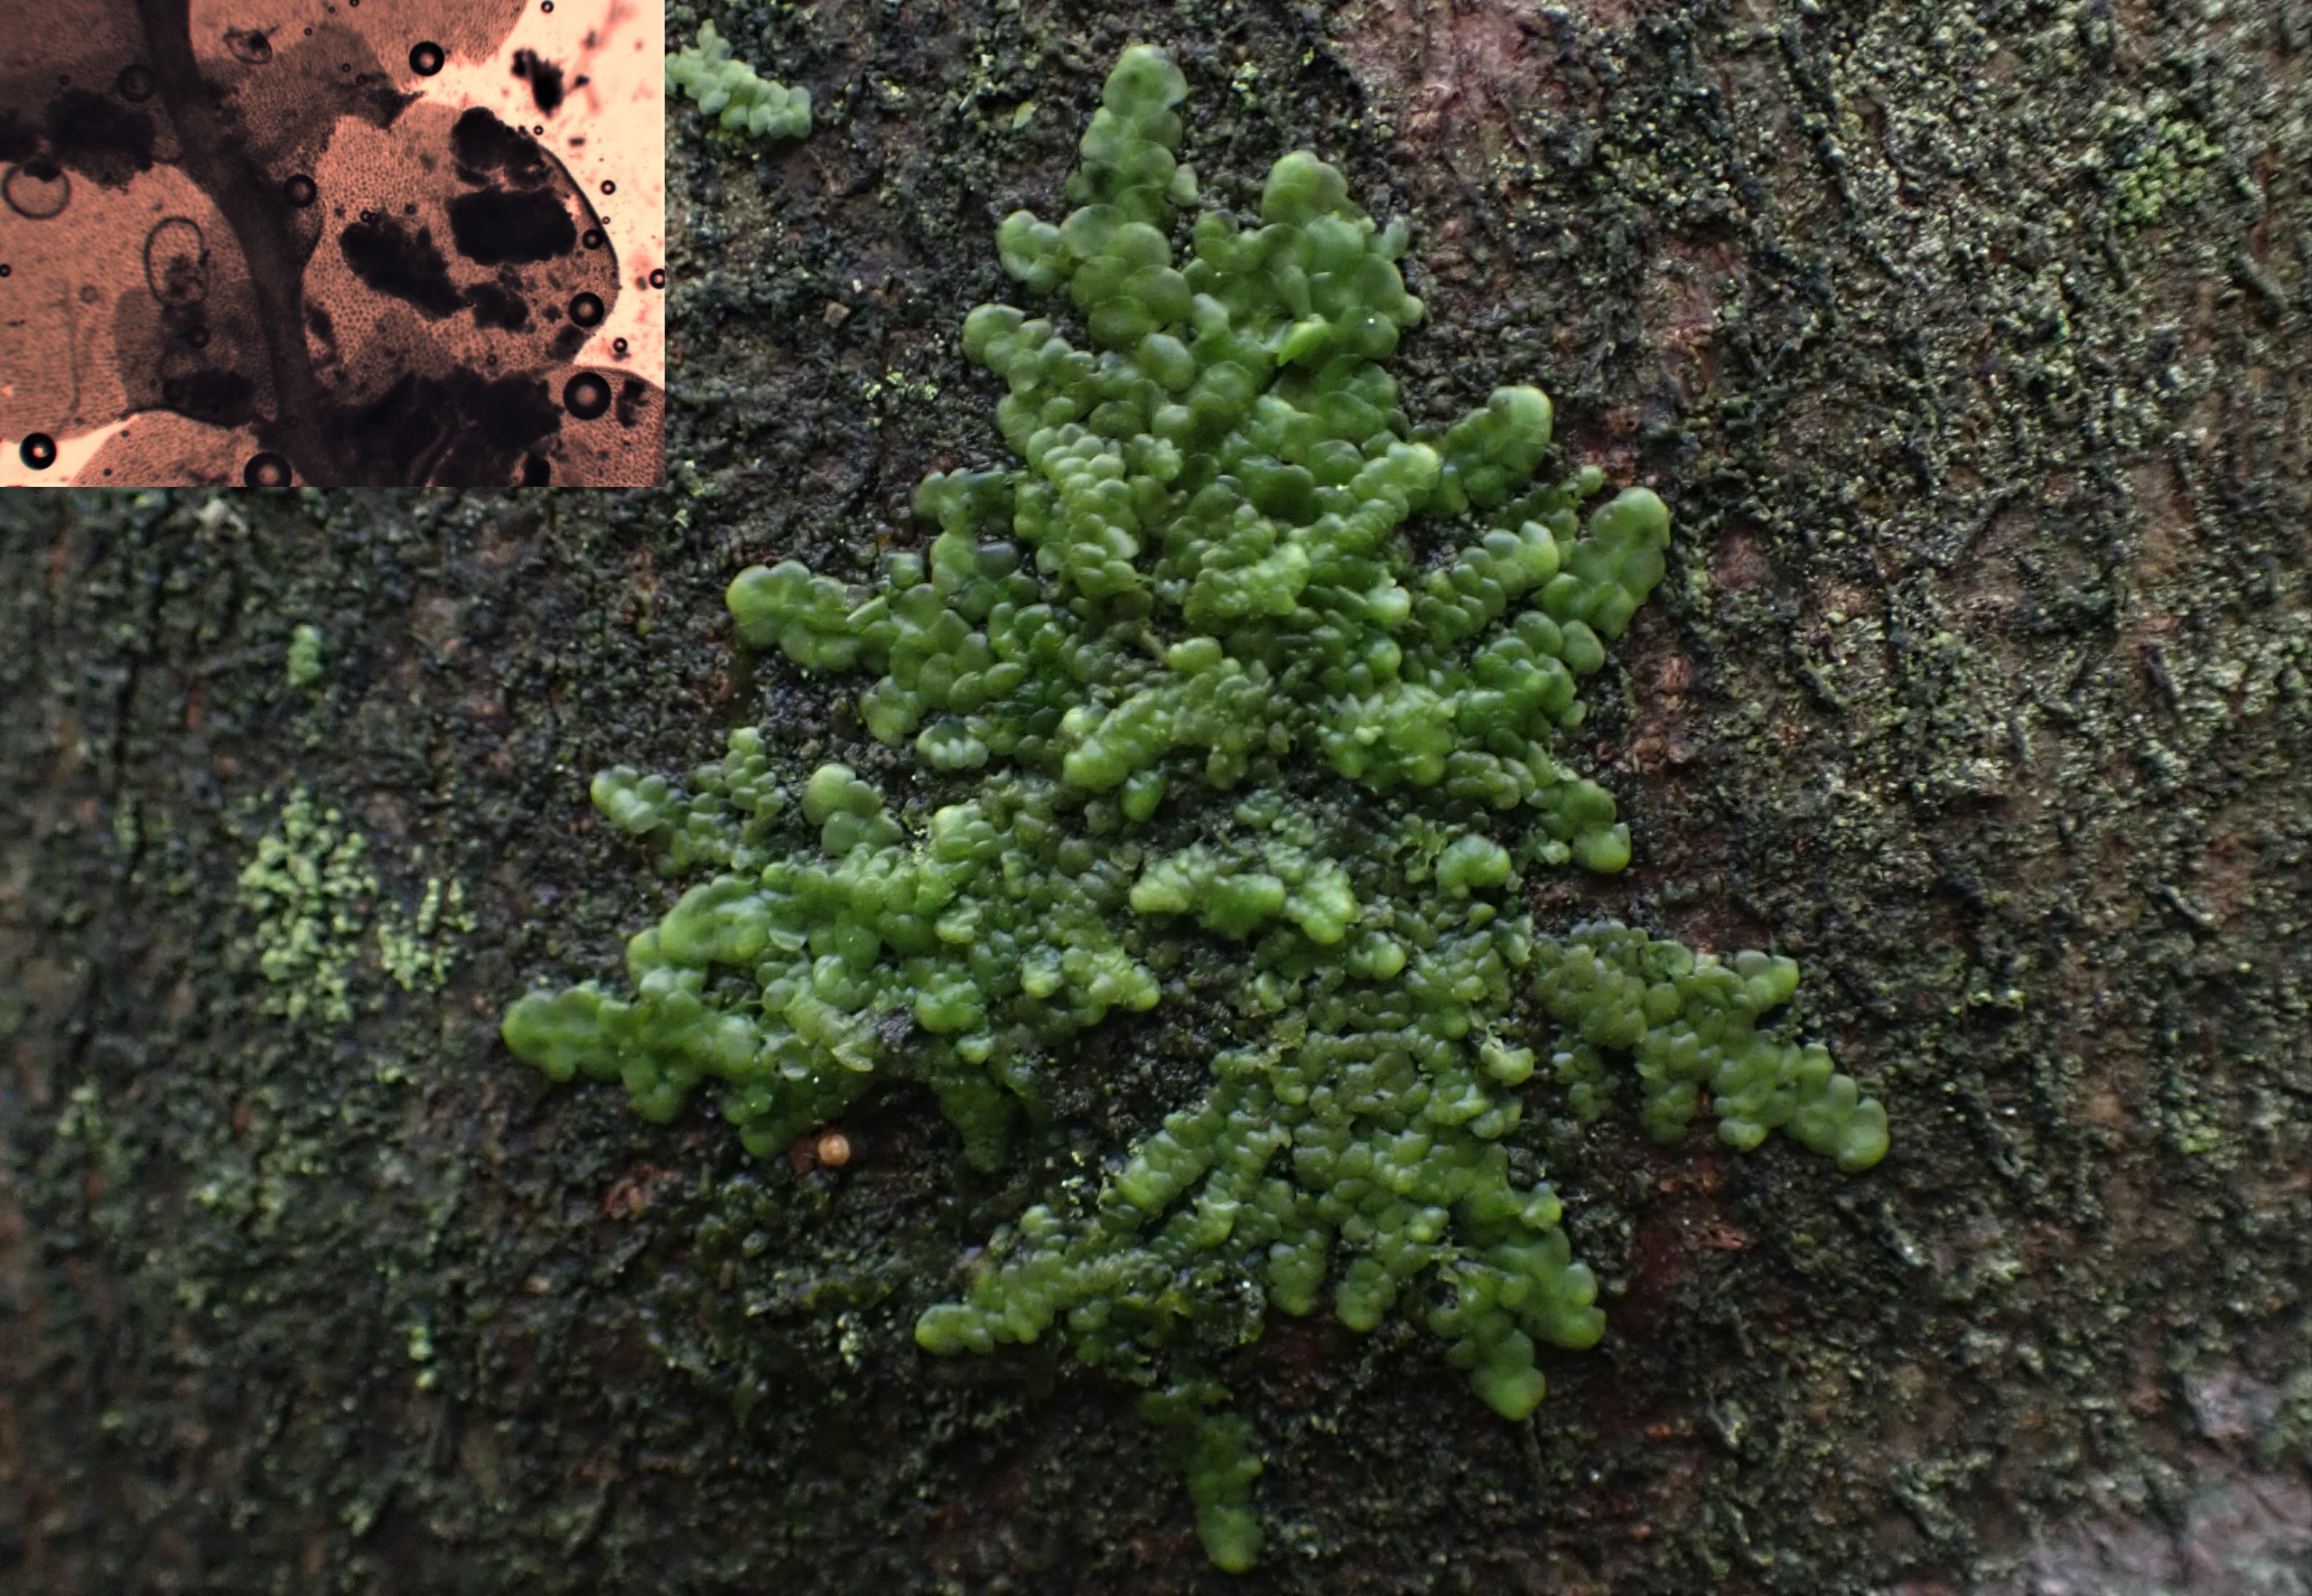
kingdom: Plantae
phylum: Marchantiophyta
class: Jungermanniopsida
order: Porellales
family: Radulaceae
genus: Radula
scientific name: Radula complanata
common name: Almindelig spartelmos
